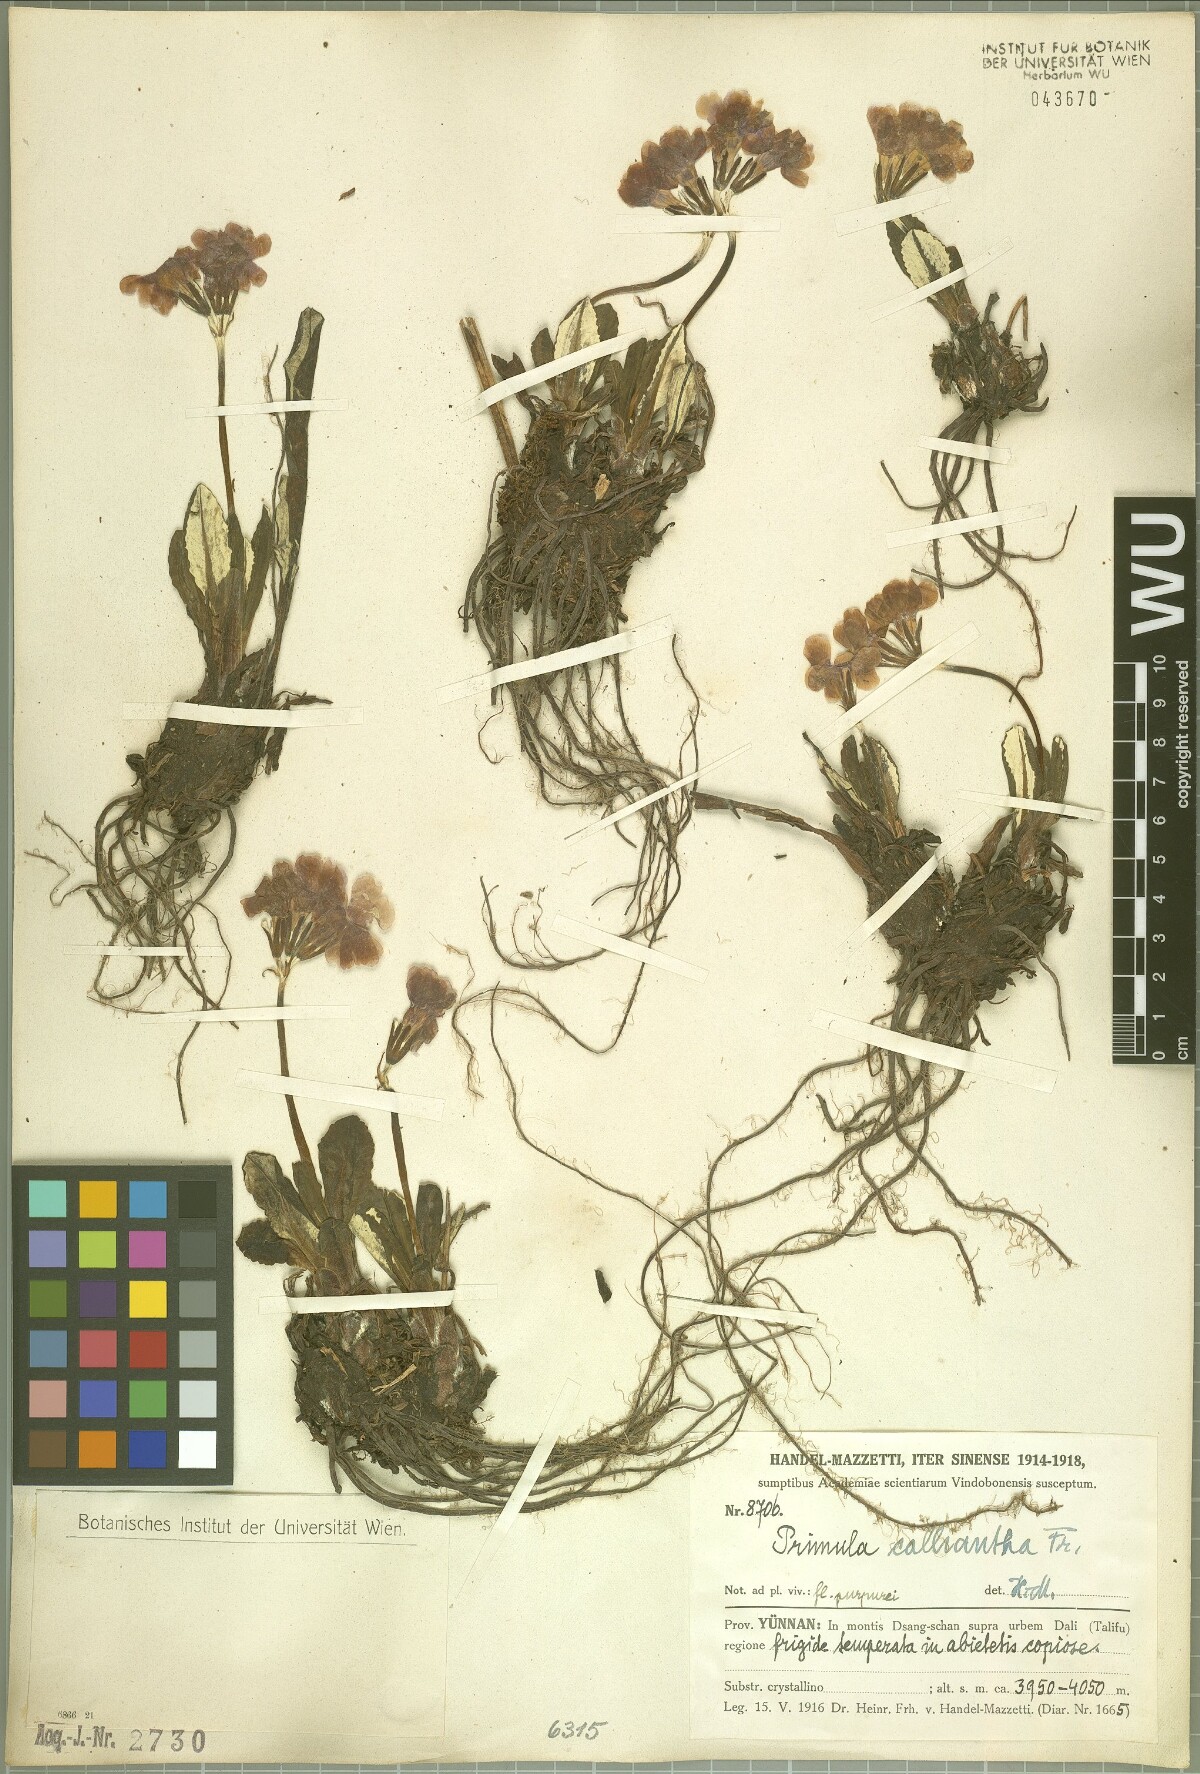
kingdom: Plantae
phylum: Tracheophyta
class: Magnoliopsida
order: Ericales
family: Primulaceae
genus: Primula
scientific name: Primula calliantha
